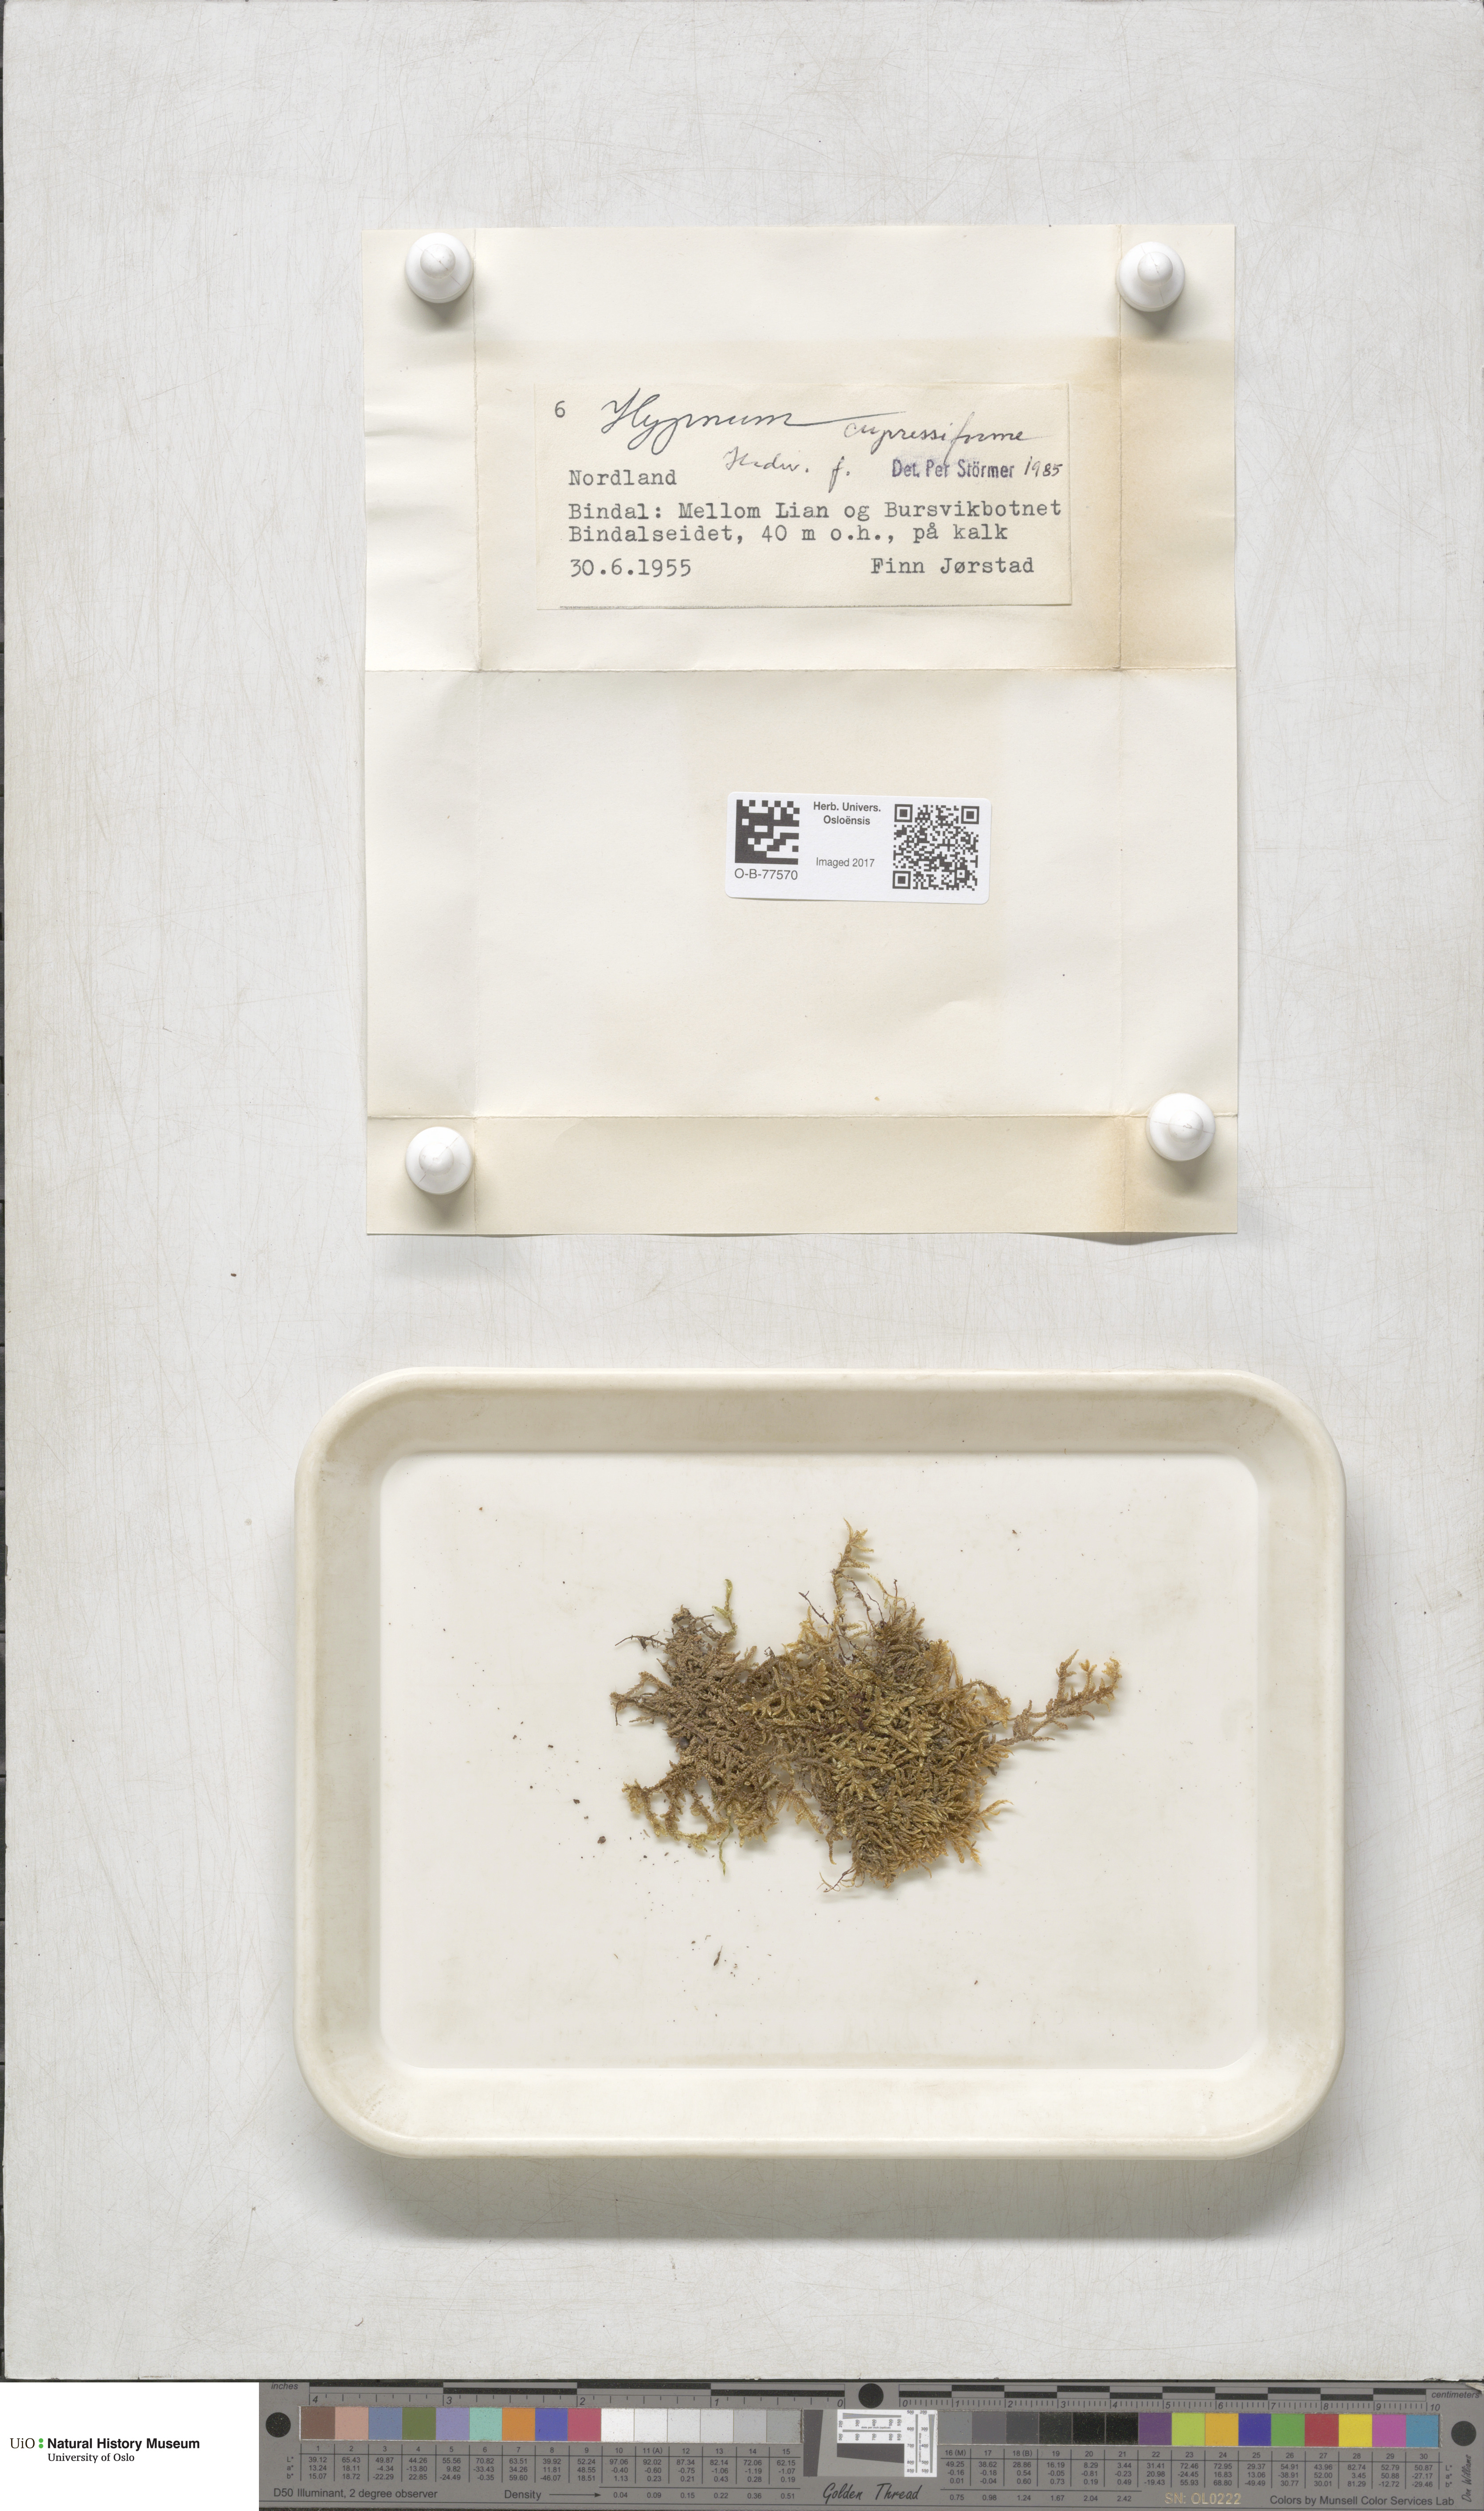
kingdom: Plantae
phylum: Bryophyta
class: Bryopsida
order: Hypnales
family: Hypnaceae
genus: Hypnum
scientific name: Hypnum cupressiforme
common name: Cypress-leaved plait-moss
